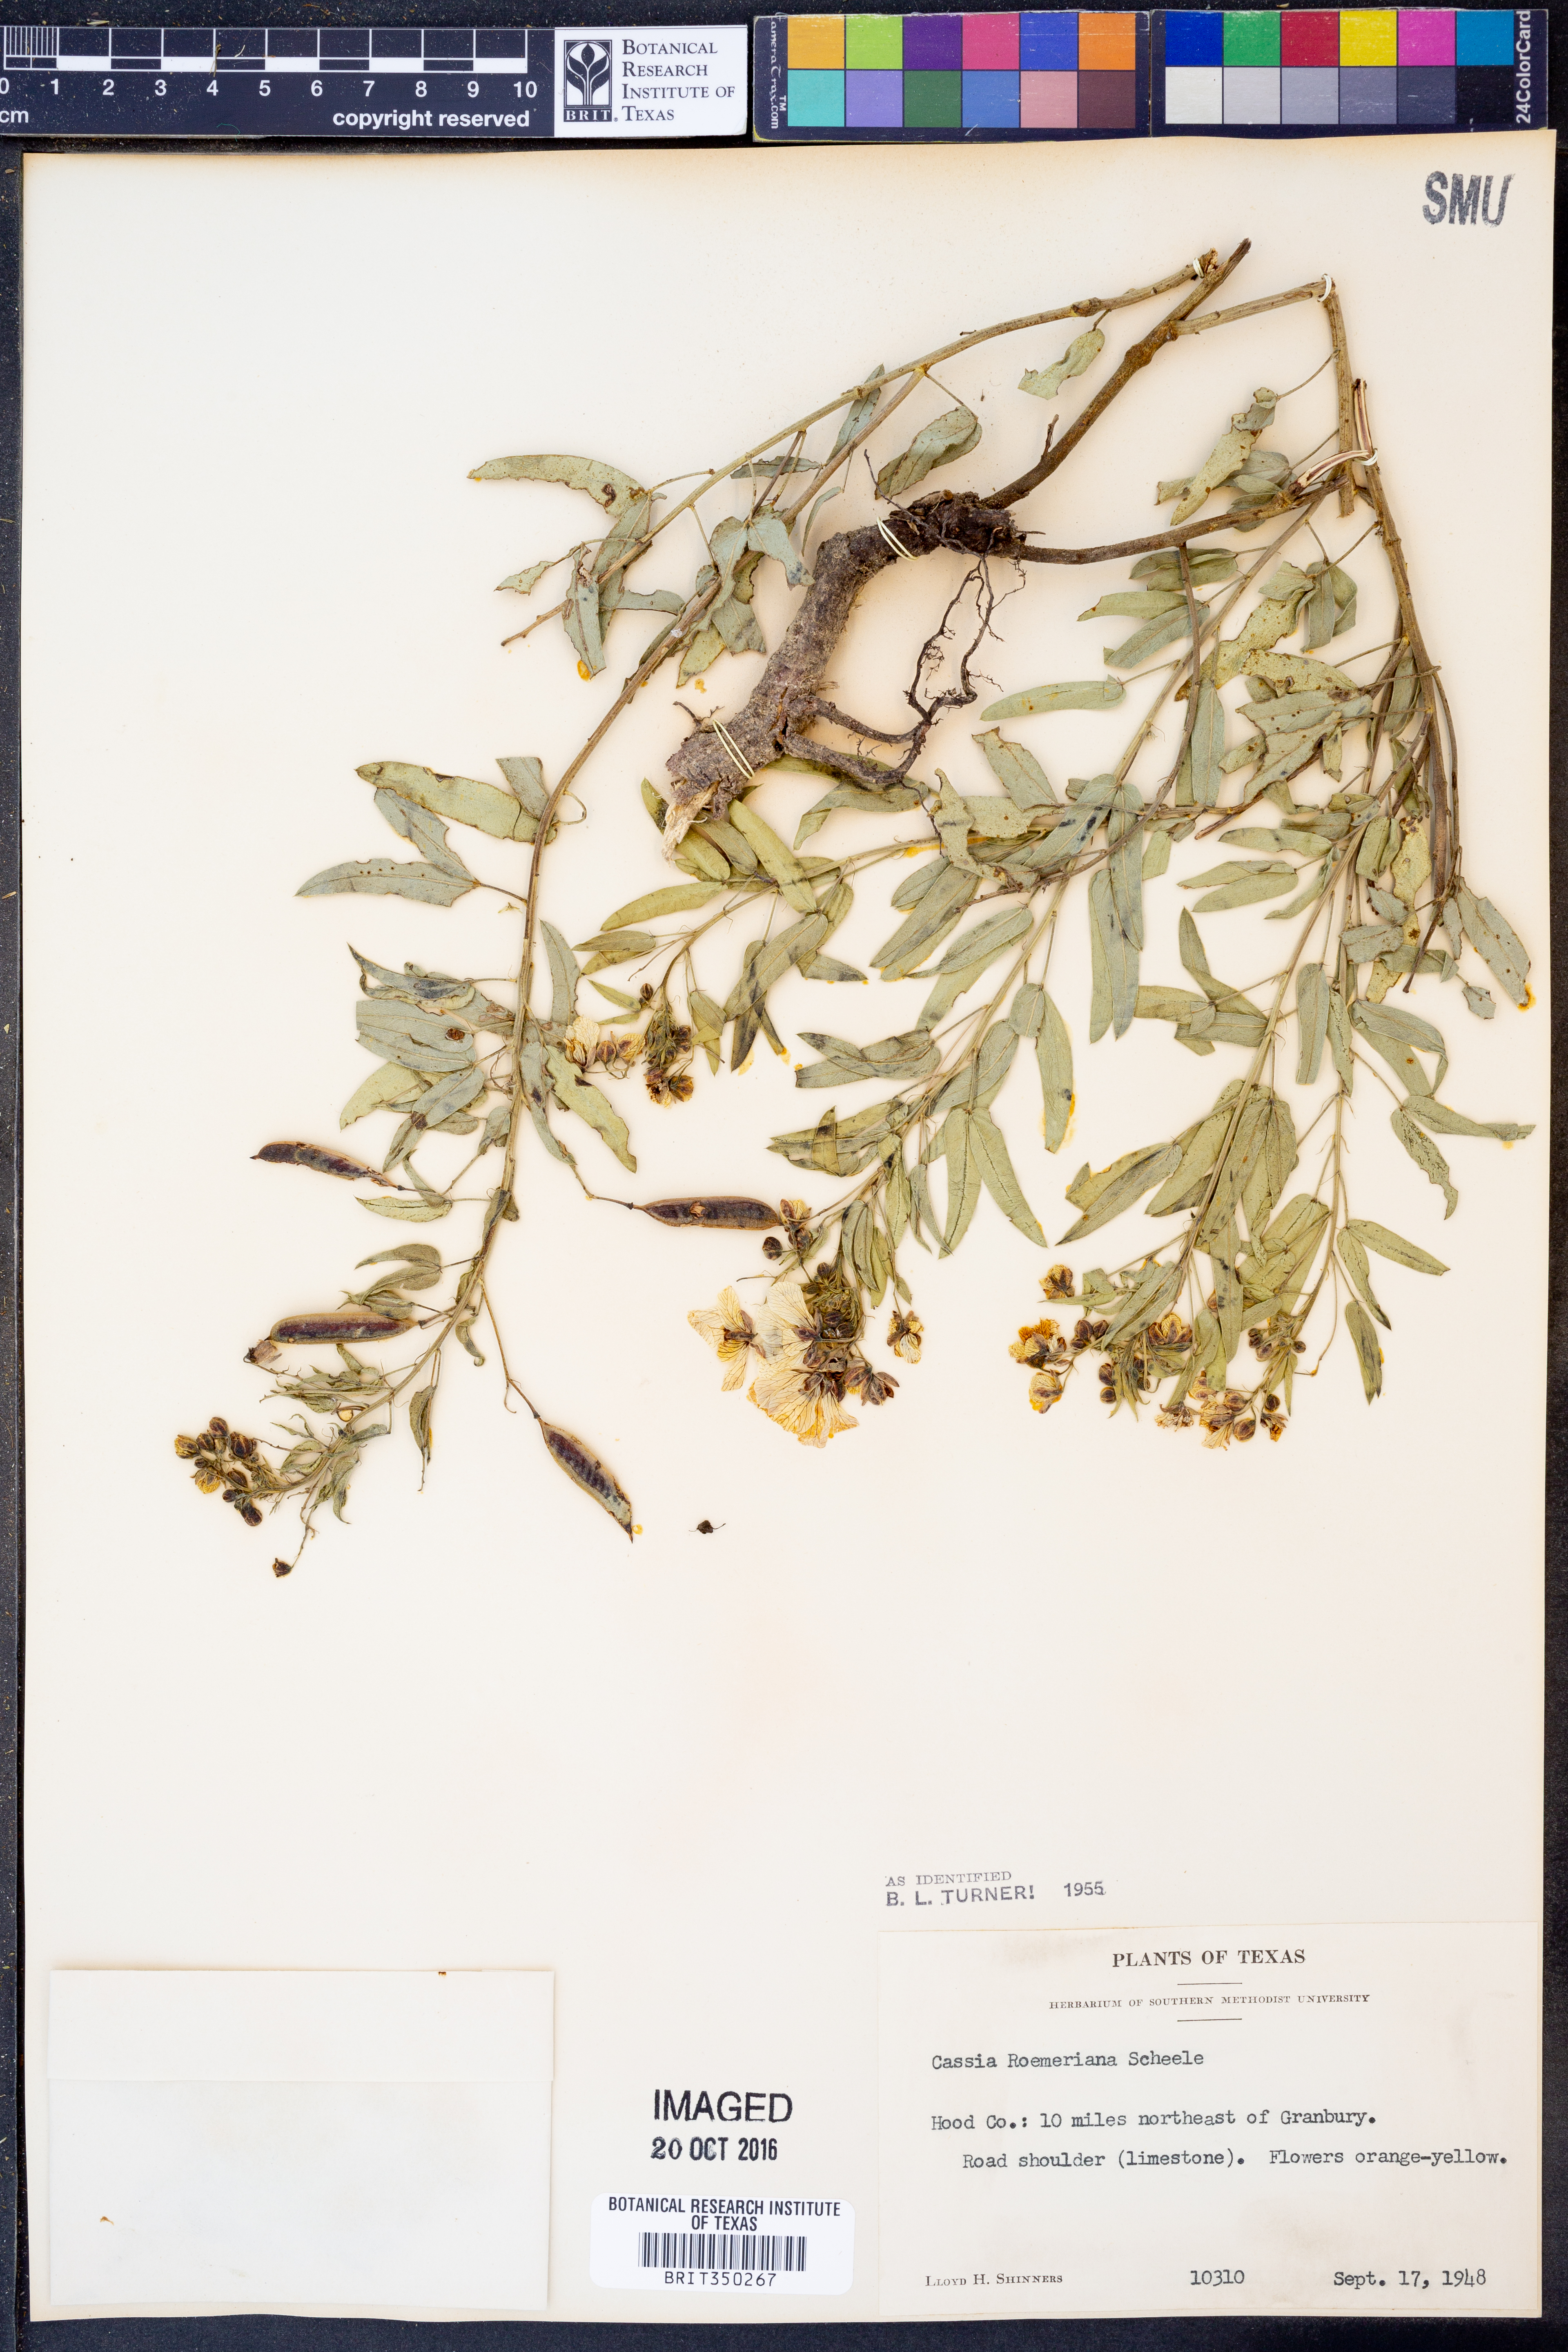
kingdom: Plantae
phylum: Tracheophyta
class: Magnoliopsida
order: Fabales
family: Fabaceae
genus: Senna
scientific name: Senna roemeriana
